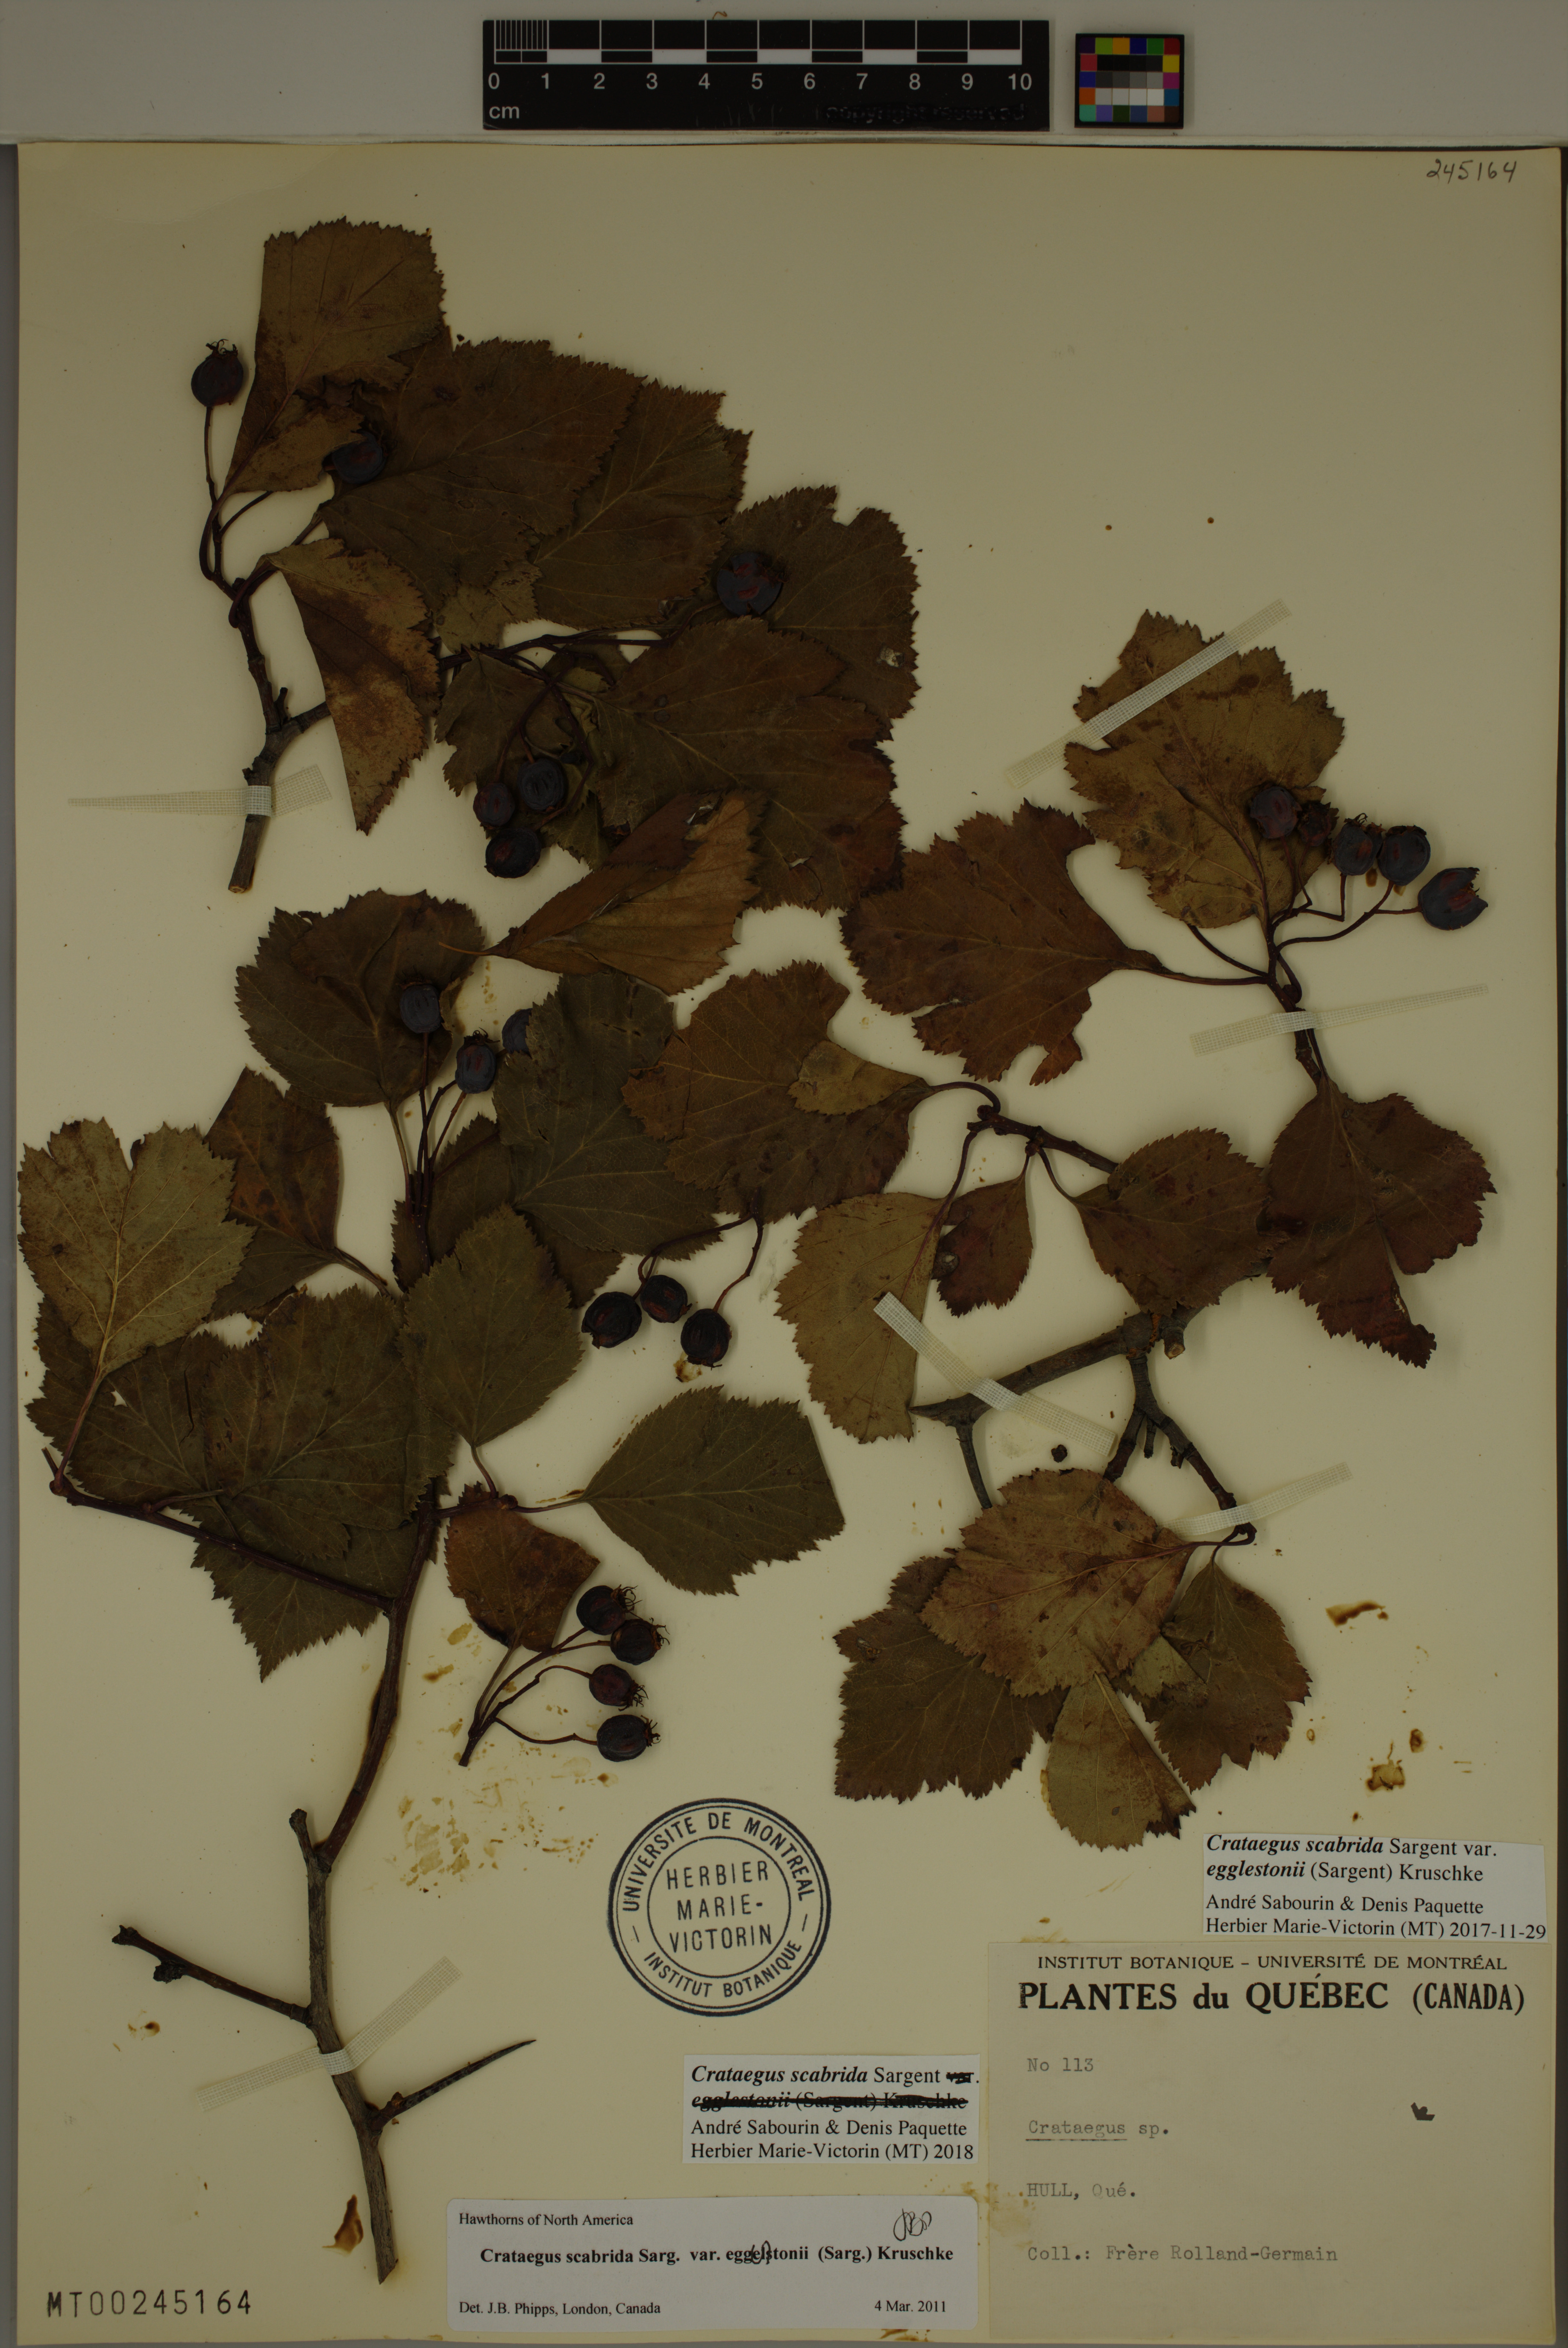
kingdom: Plantae
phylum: Tracheophyta
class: Magnoliopsida
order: Rosales
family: Rosaceae
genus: Crataegus
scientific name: Crataegus scabrida
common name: Rough hawthorn
